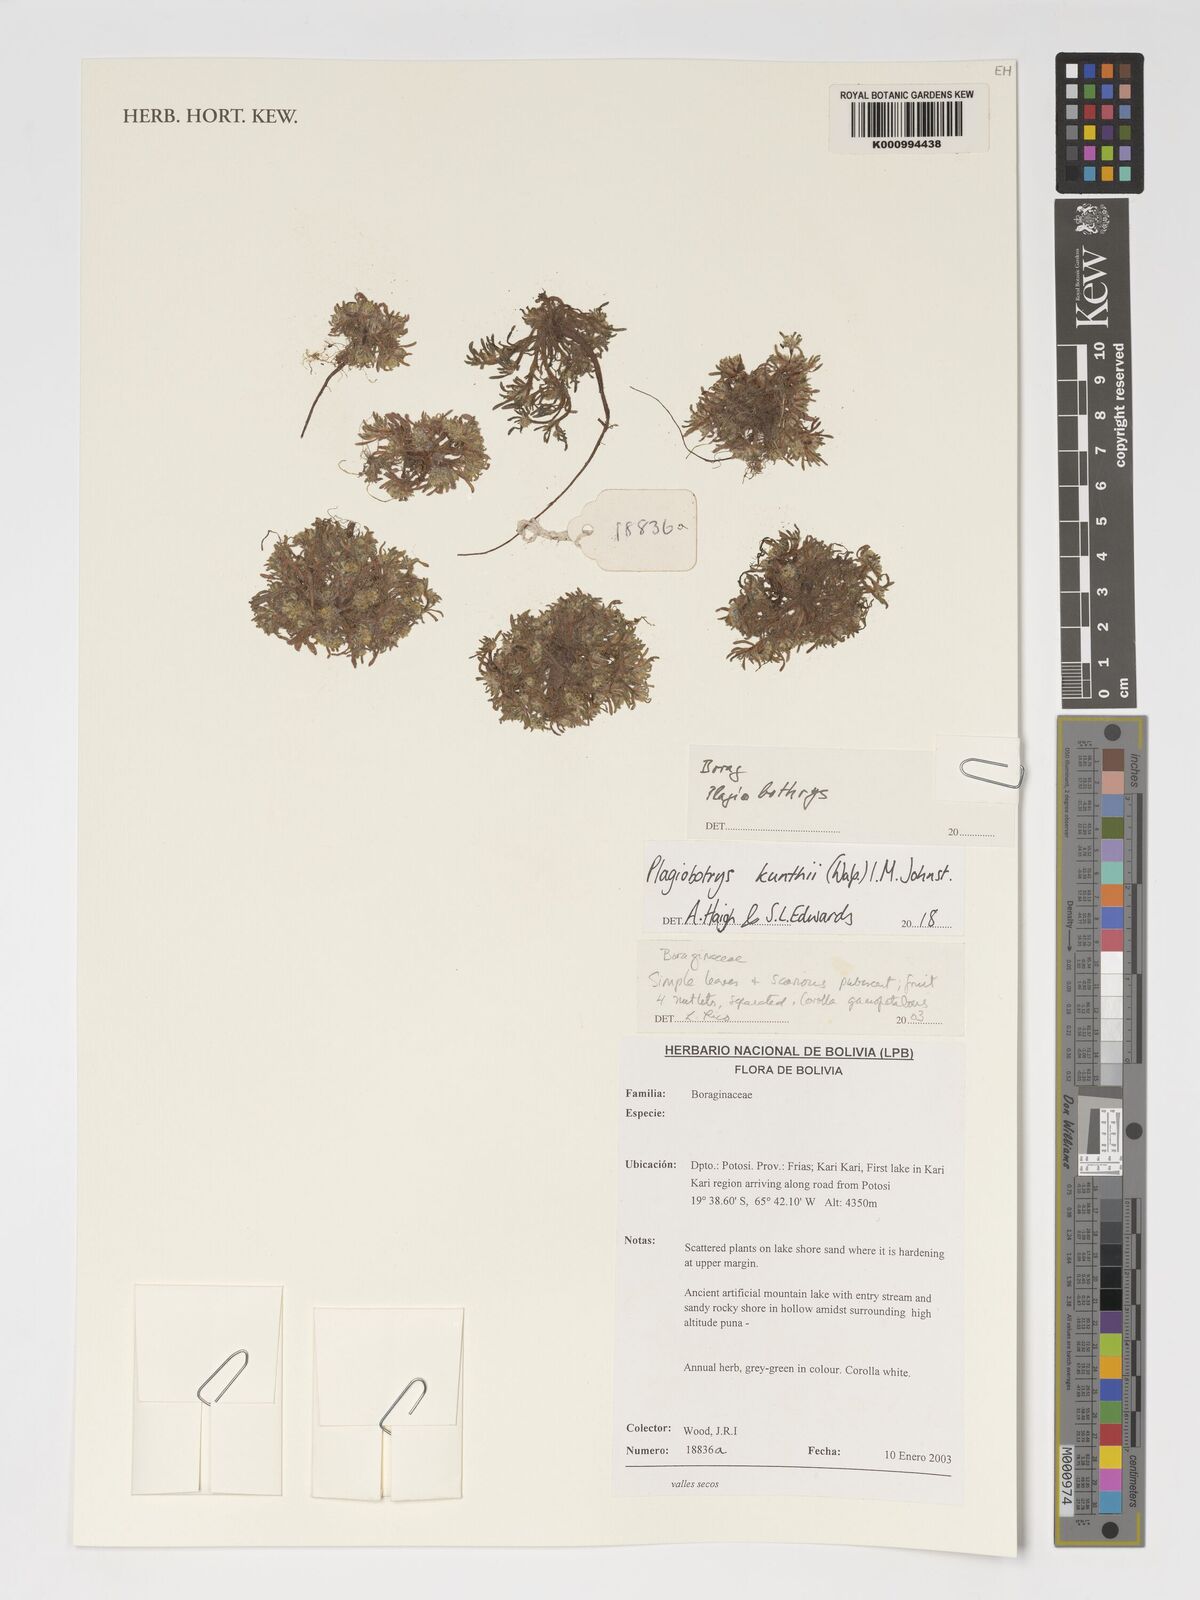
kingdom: Plantae
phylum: Tracheophyta
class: Magnoliopsida
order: Boraginales
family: Boraginaceae
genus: Plagiobothrys
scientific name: Plagiobothrys
